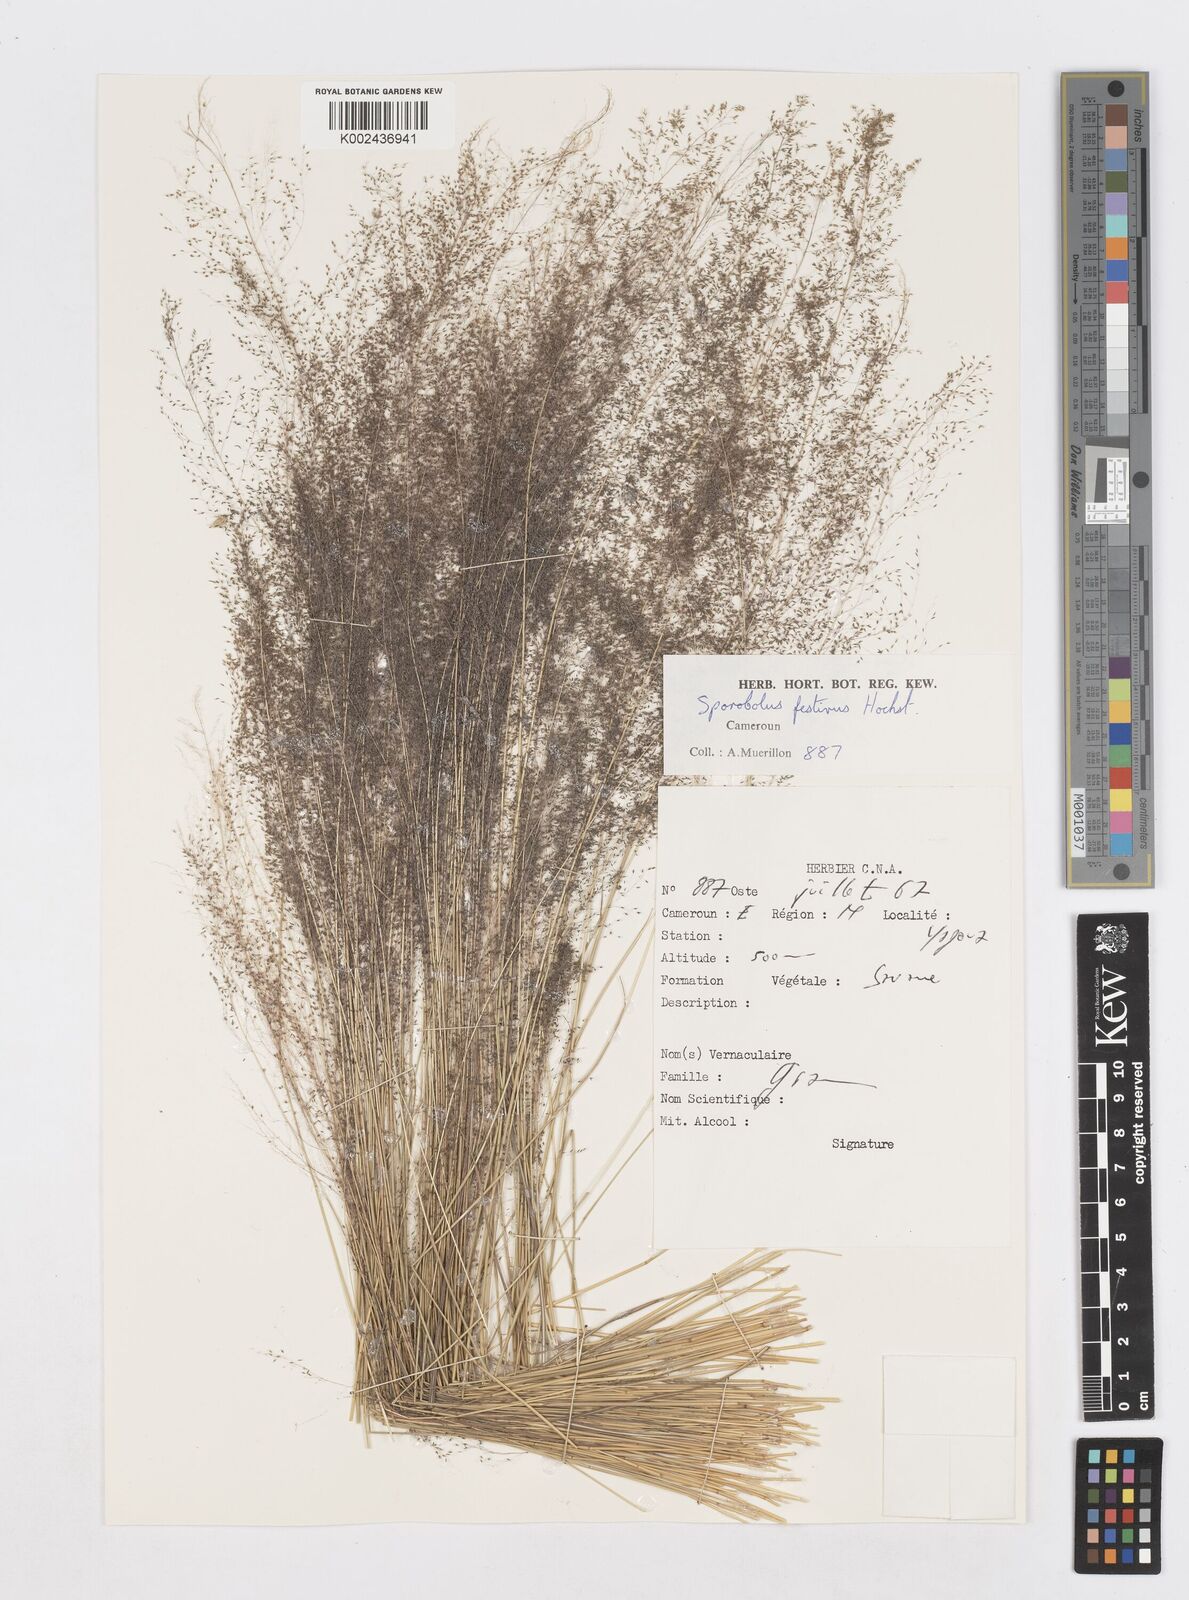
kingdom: Plantae
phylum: Tracheophyta
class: Liliopsida
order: Poales
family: Poaceae
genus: Sporobolus
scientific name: Sporobolus festivus
